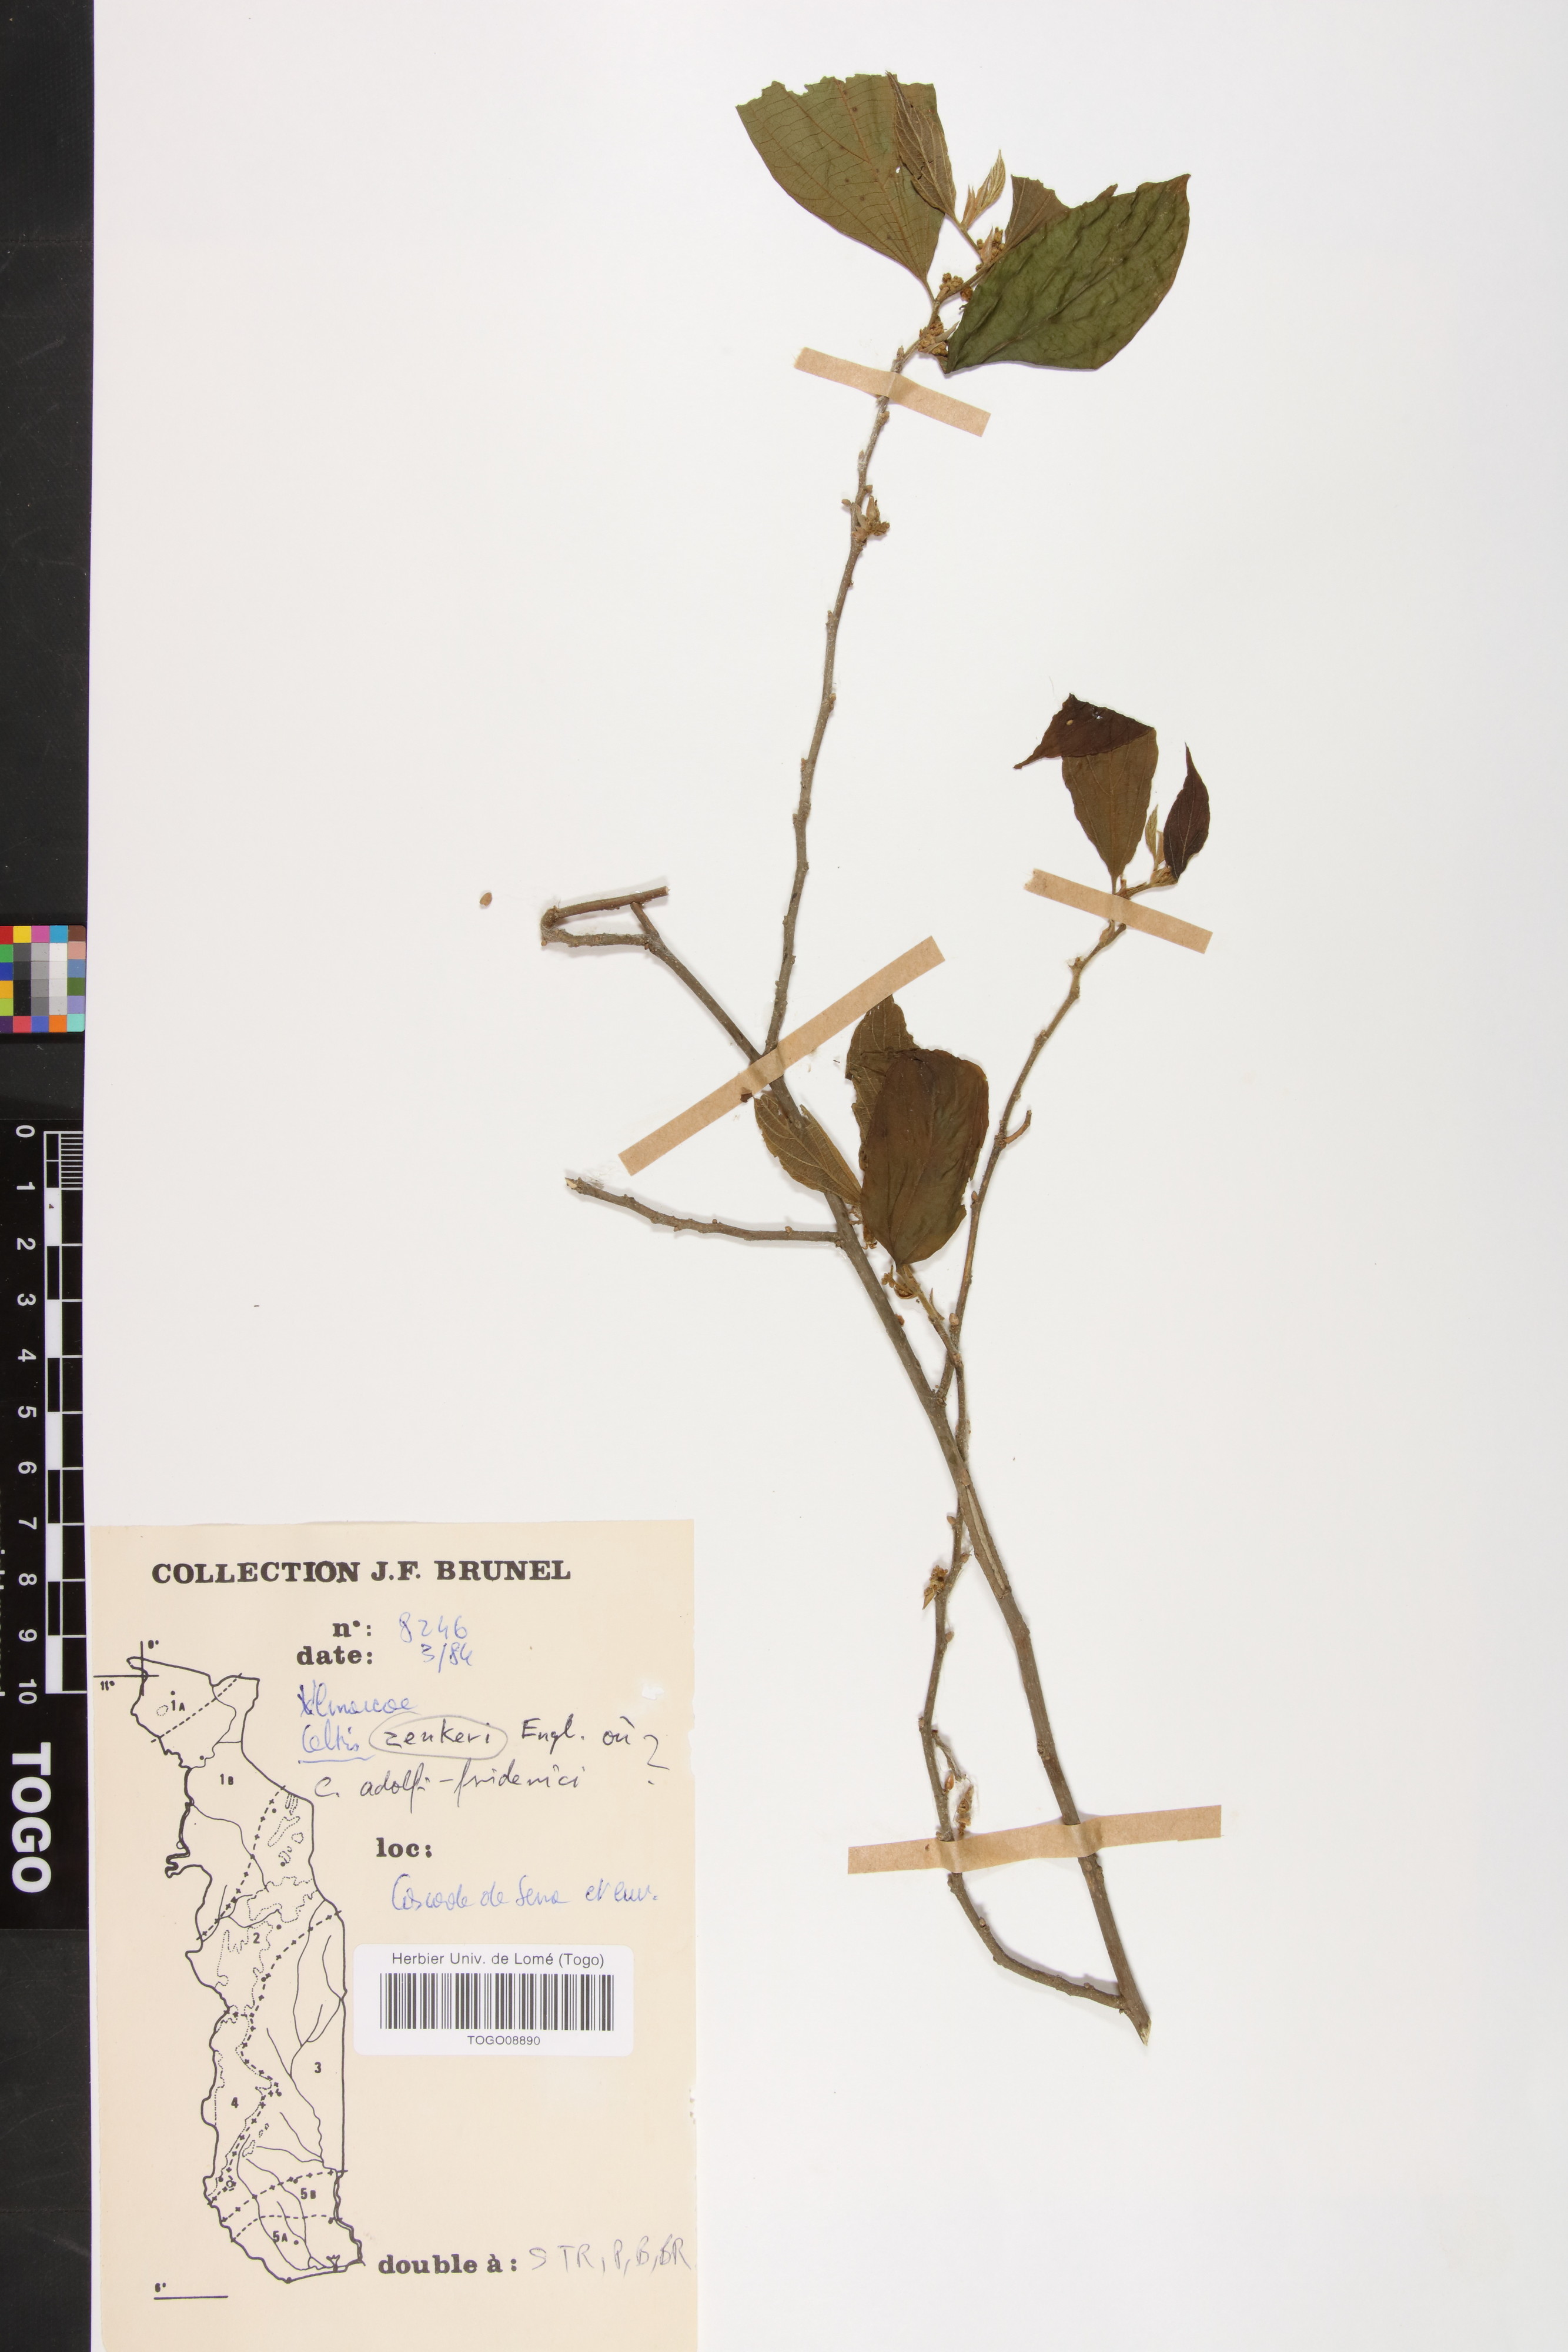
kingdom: Plantae
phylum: Tracheophyta
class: Magnoliopsida
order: Rosales
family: Cannabaceae
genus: Celtis
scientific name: Celtis zenkeri
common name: African celtis
